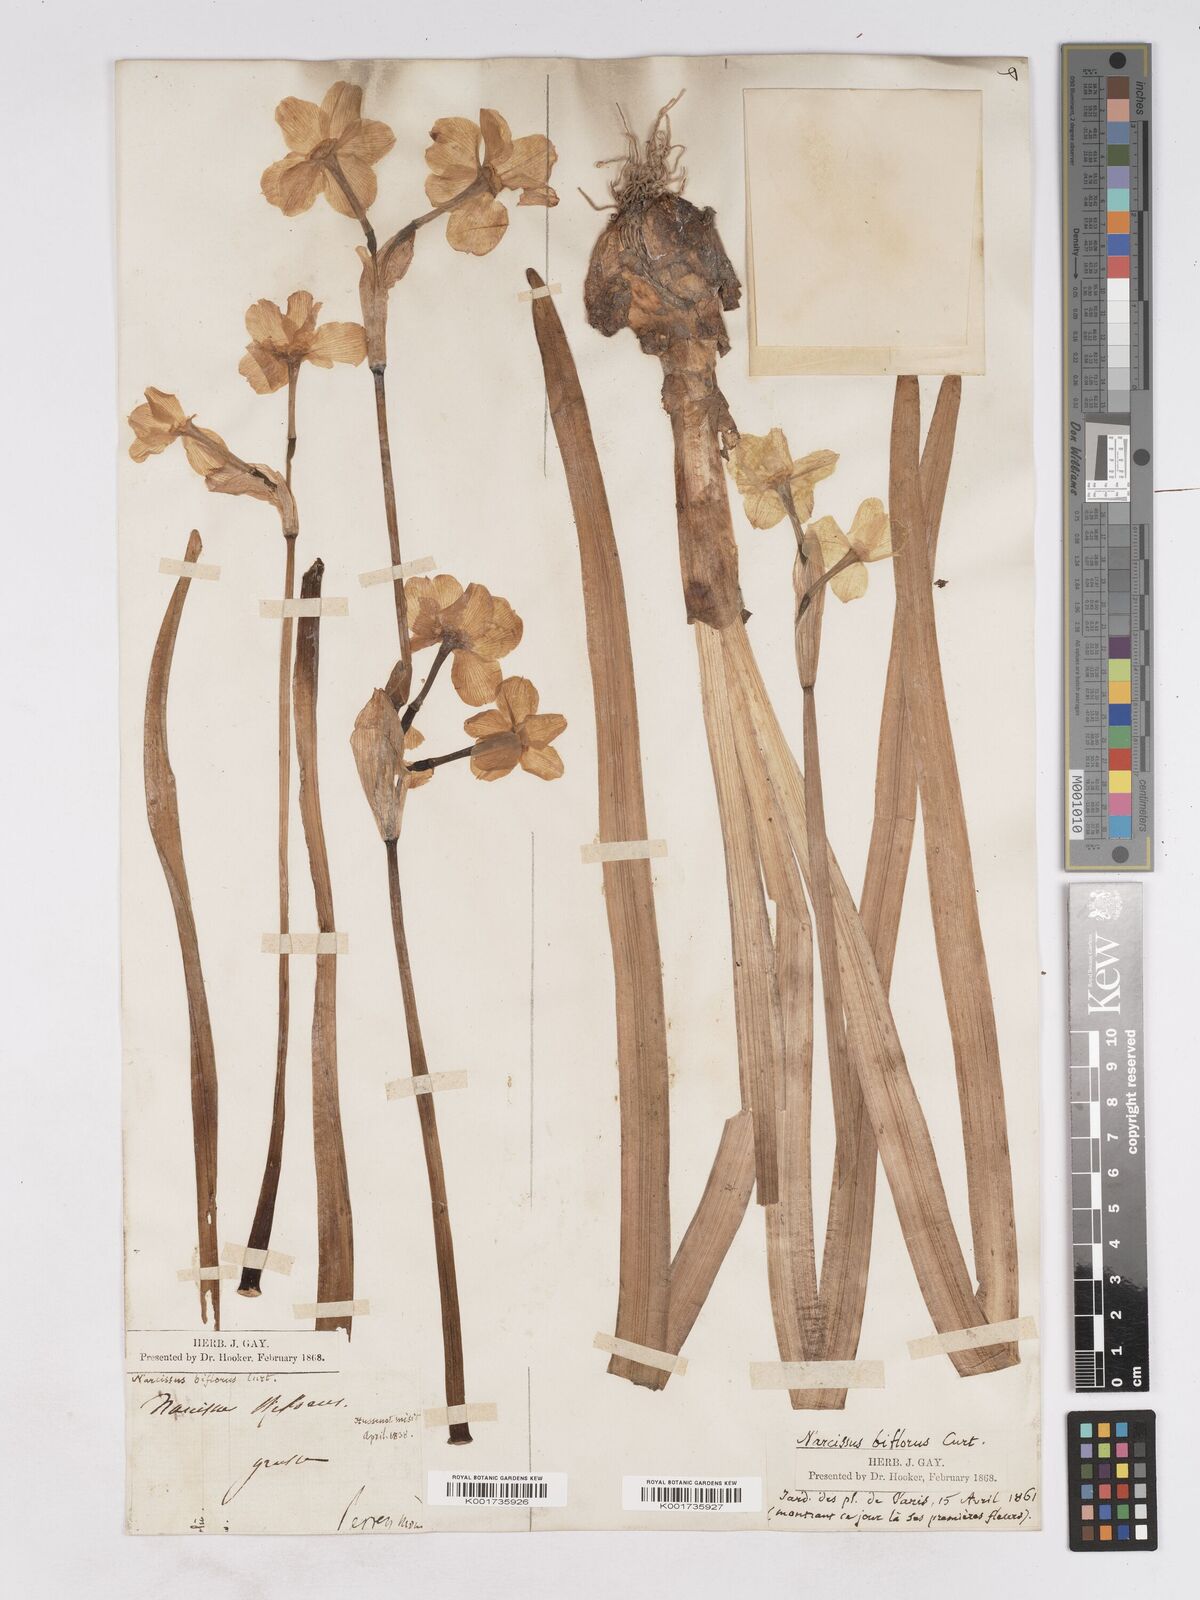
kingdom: Plantae
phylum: Tracheophyta
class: Liliopsida
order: Asparagales
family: Amaryllidaceae
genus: Narcissus
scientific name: Narcissus medioluteus
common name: Primrose-peerless
